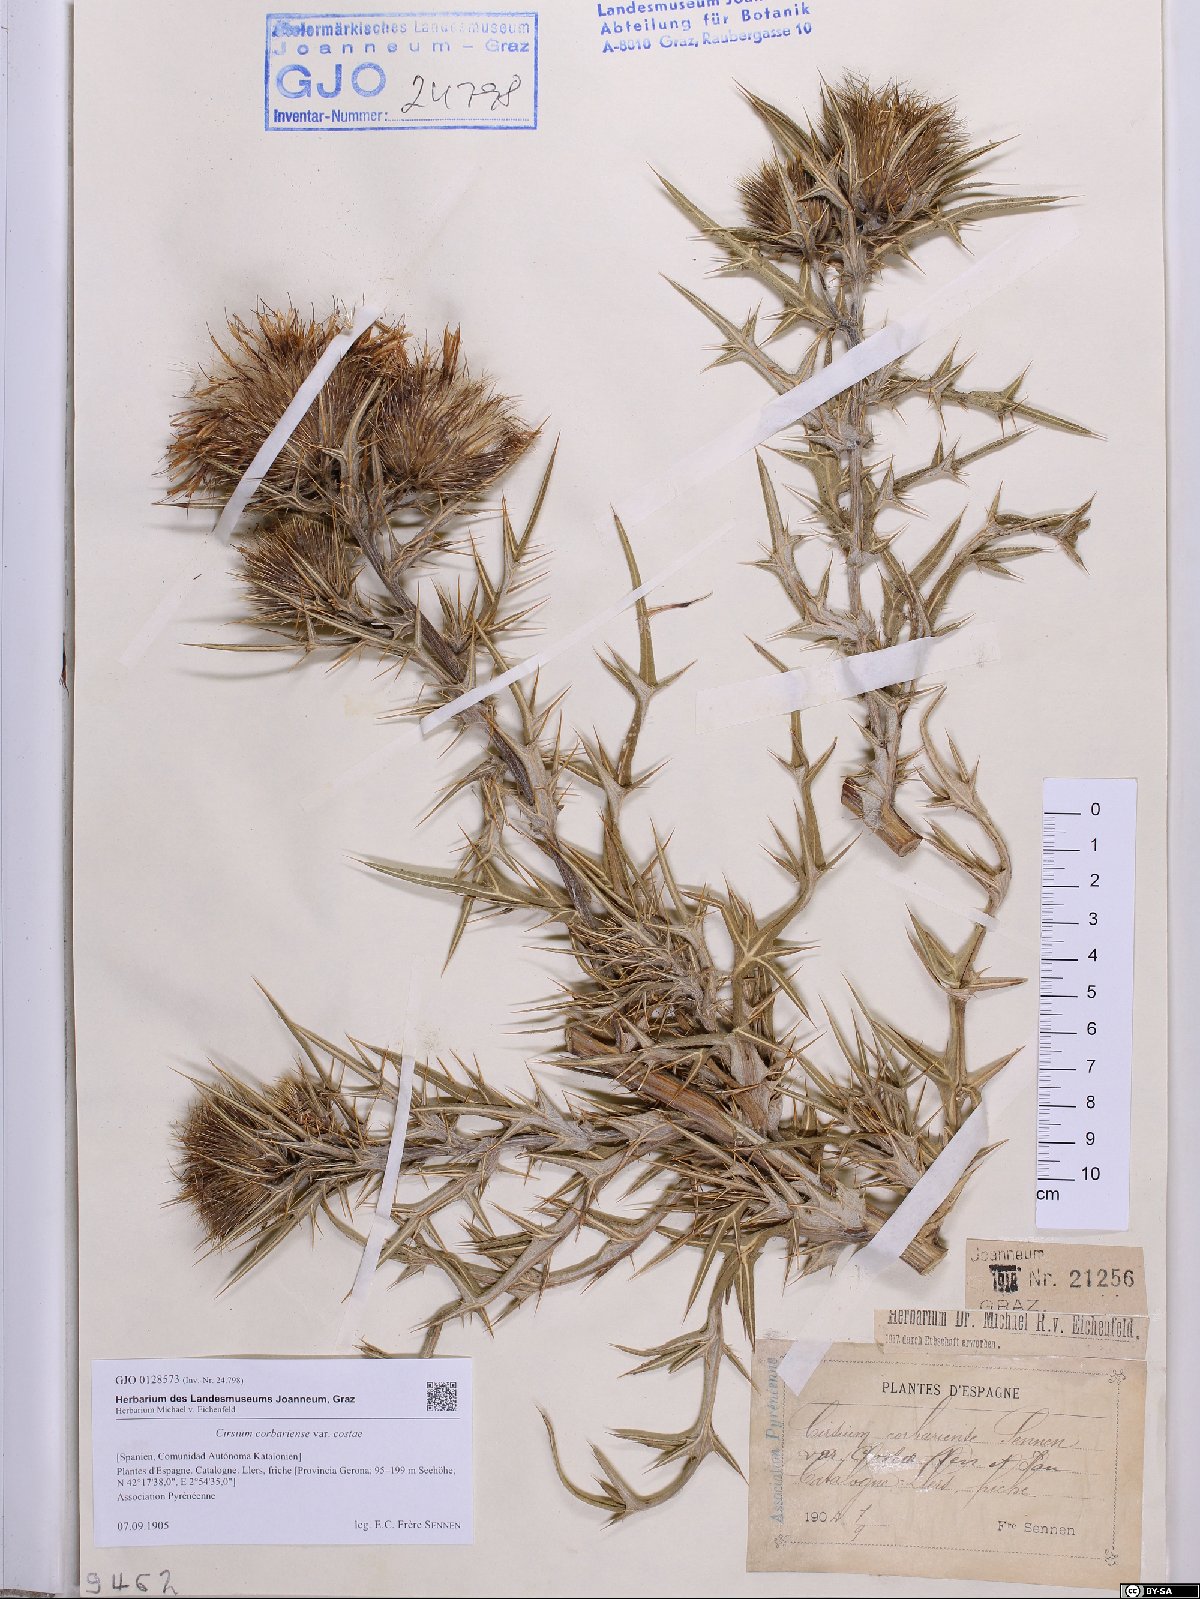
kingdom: Plantae
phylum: Tracheophyta
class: Magnoliopsida
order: Asterales
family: Asteraceae
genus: Lophiolepis
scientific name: Lophiolepis eriophora
